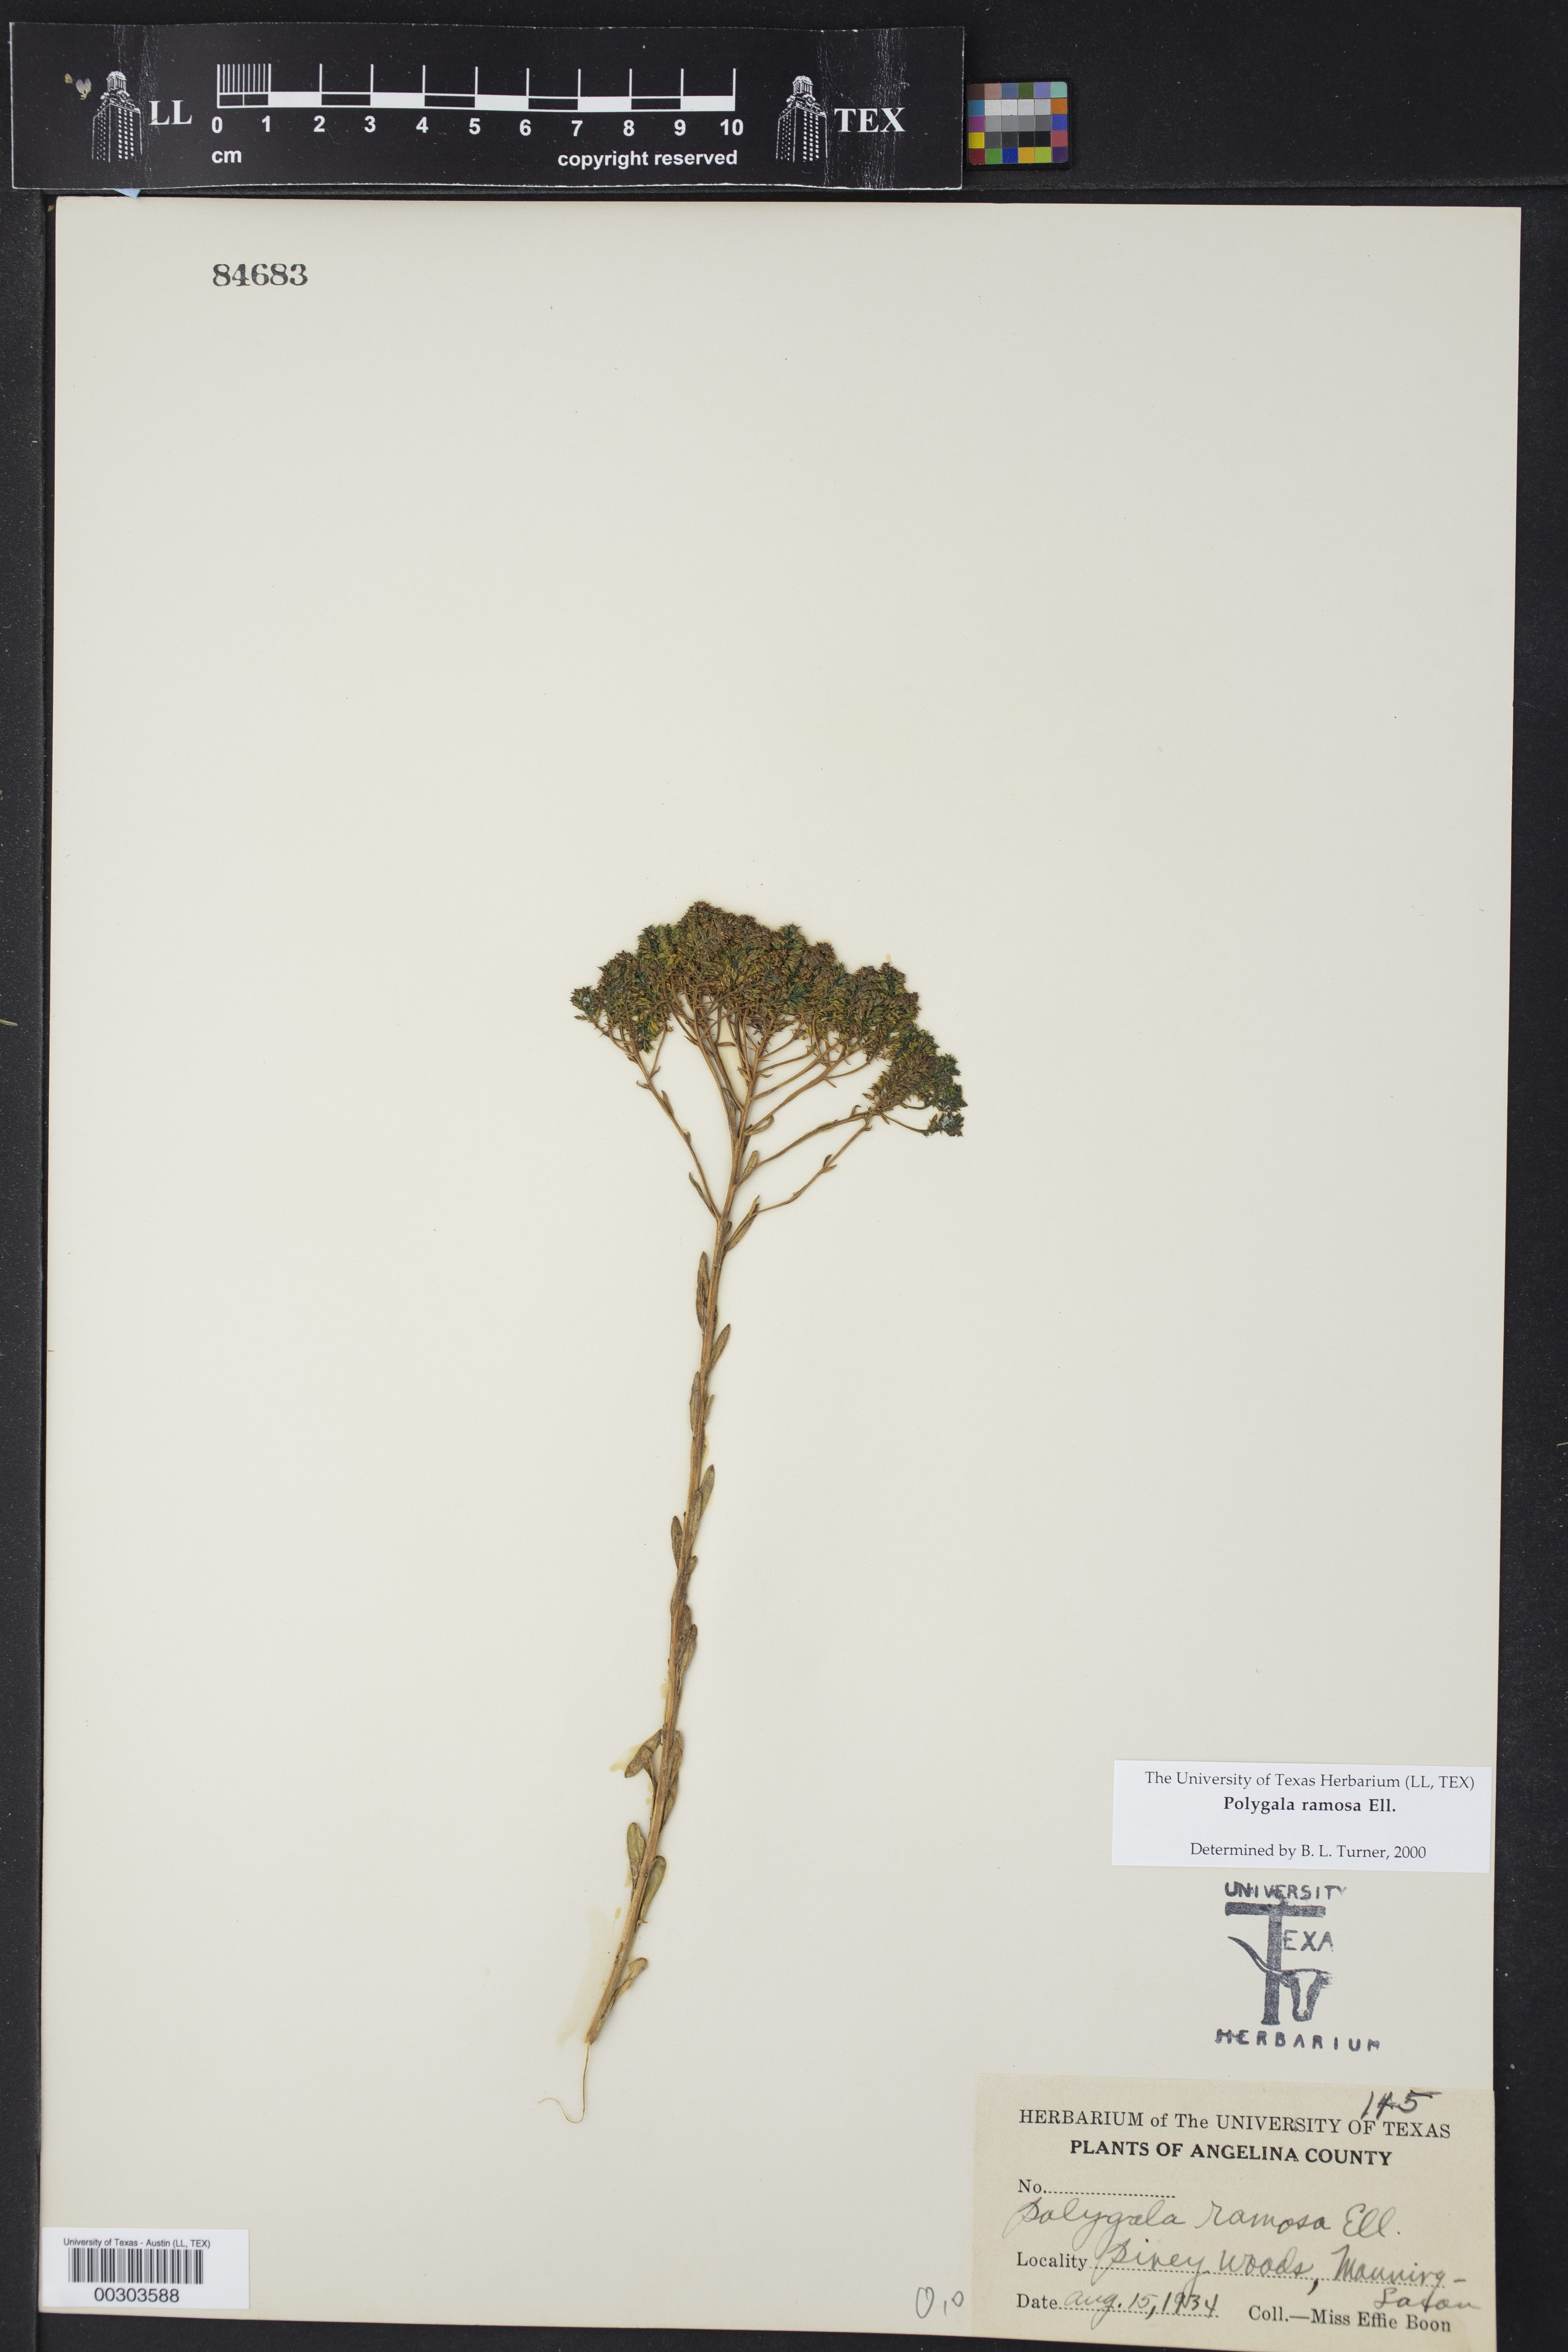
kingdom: Plantae
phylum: Tracheophyta
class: Magnoliopsida
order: Fabales
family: Polygalaceae
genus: Polygala
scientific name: Polygala ramosa
